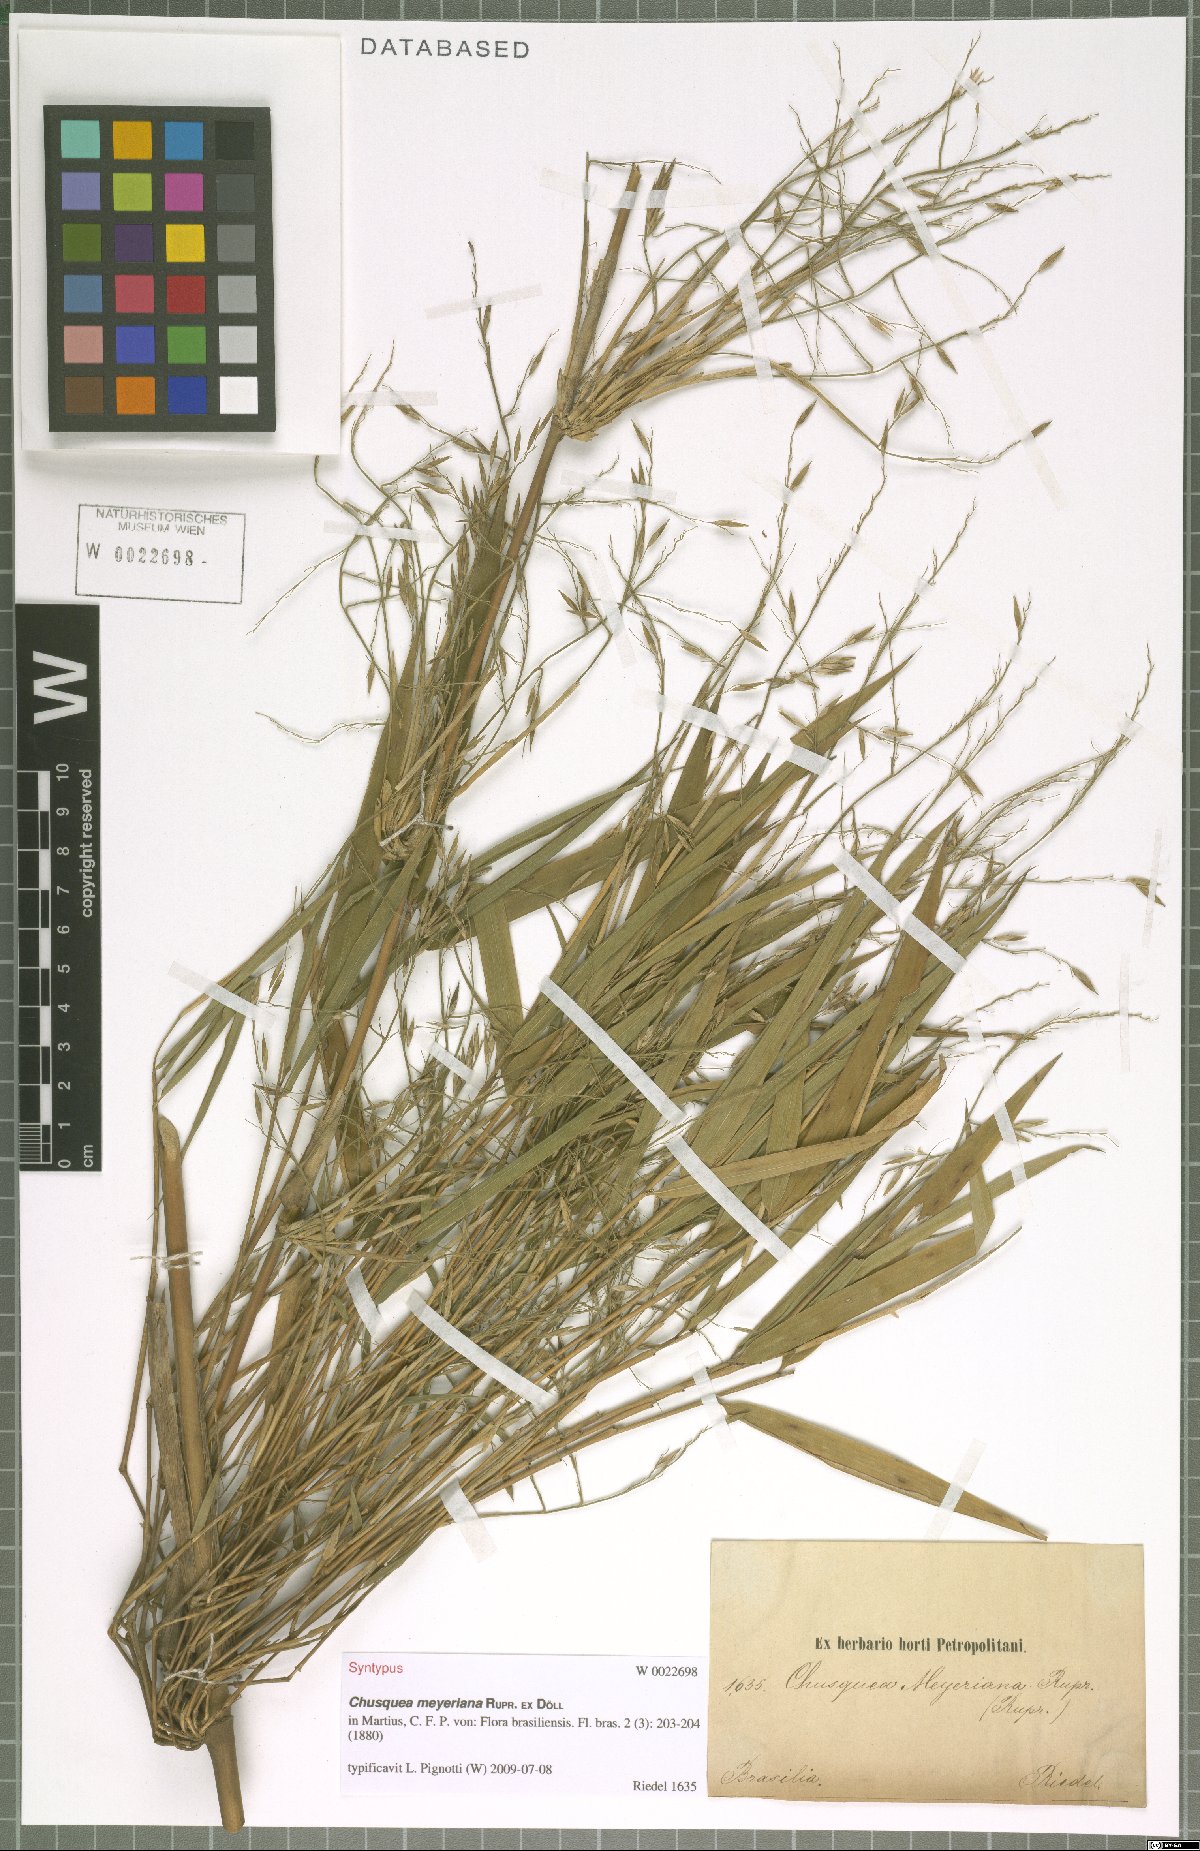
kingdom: Plantae
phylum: Tracheophyta
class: Liliopsida
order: Poales
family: Poaceae
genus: Chusquea
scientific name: Chusquea meyeriana
